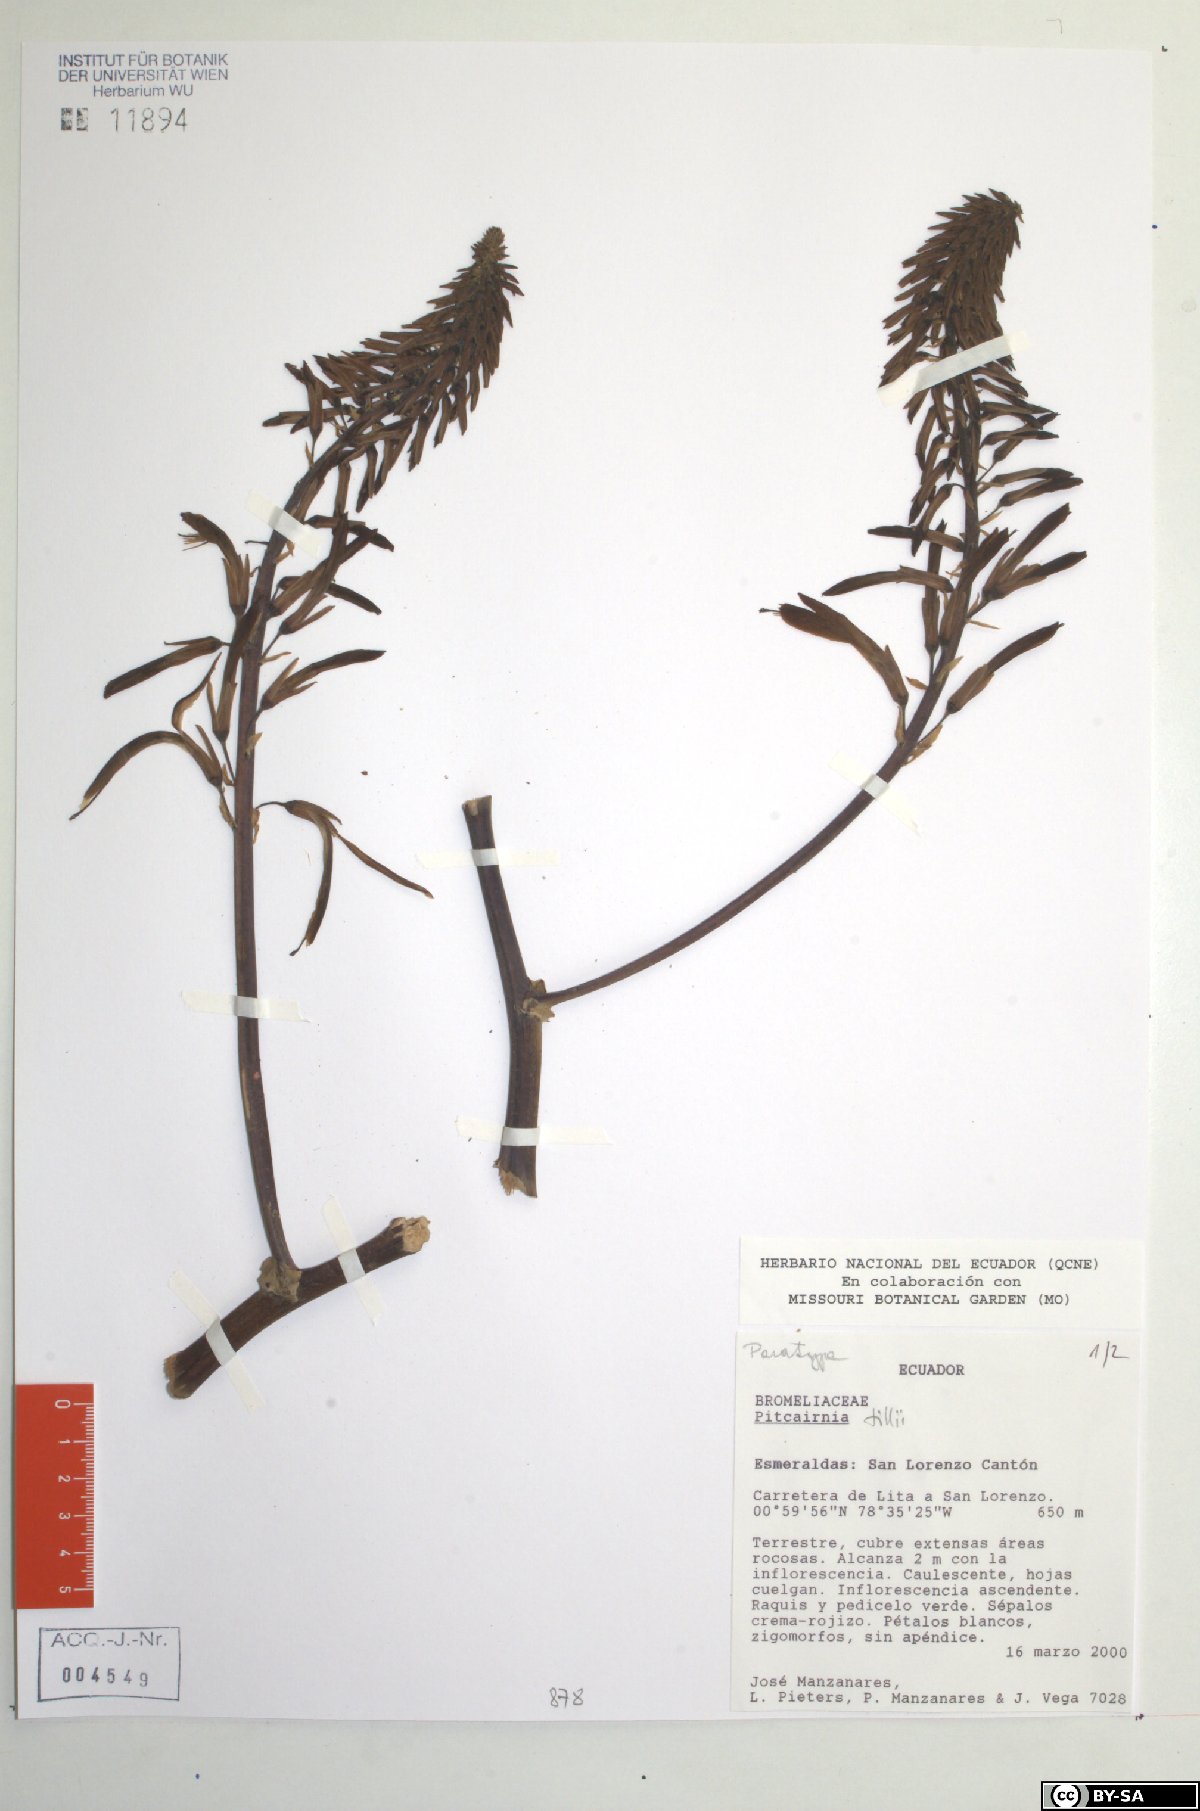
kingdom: Plantae
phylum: Tracheophyta
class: Liliopsida
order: Poales
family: Bromeliaceae
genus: Pitcairnia
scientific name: Pitcairnia tillii
